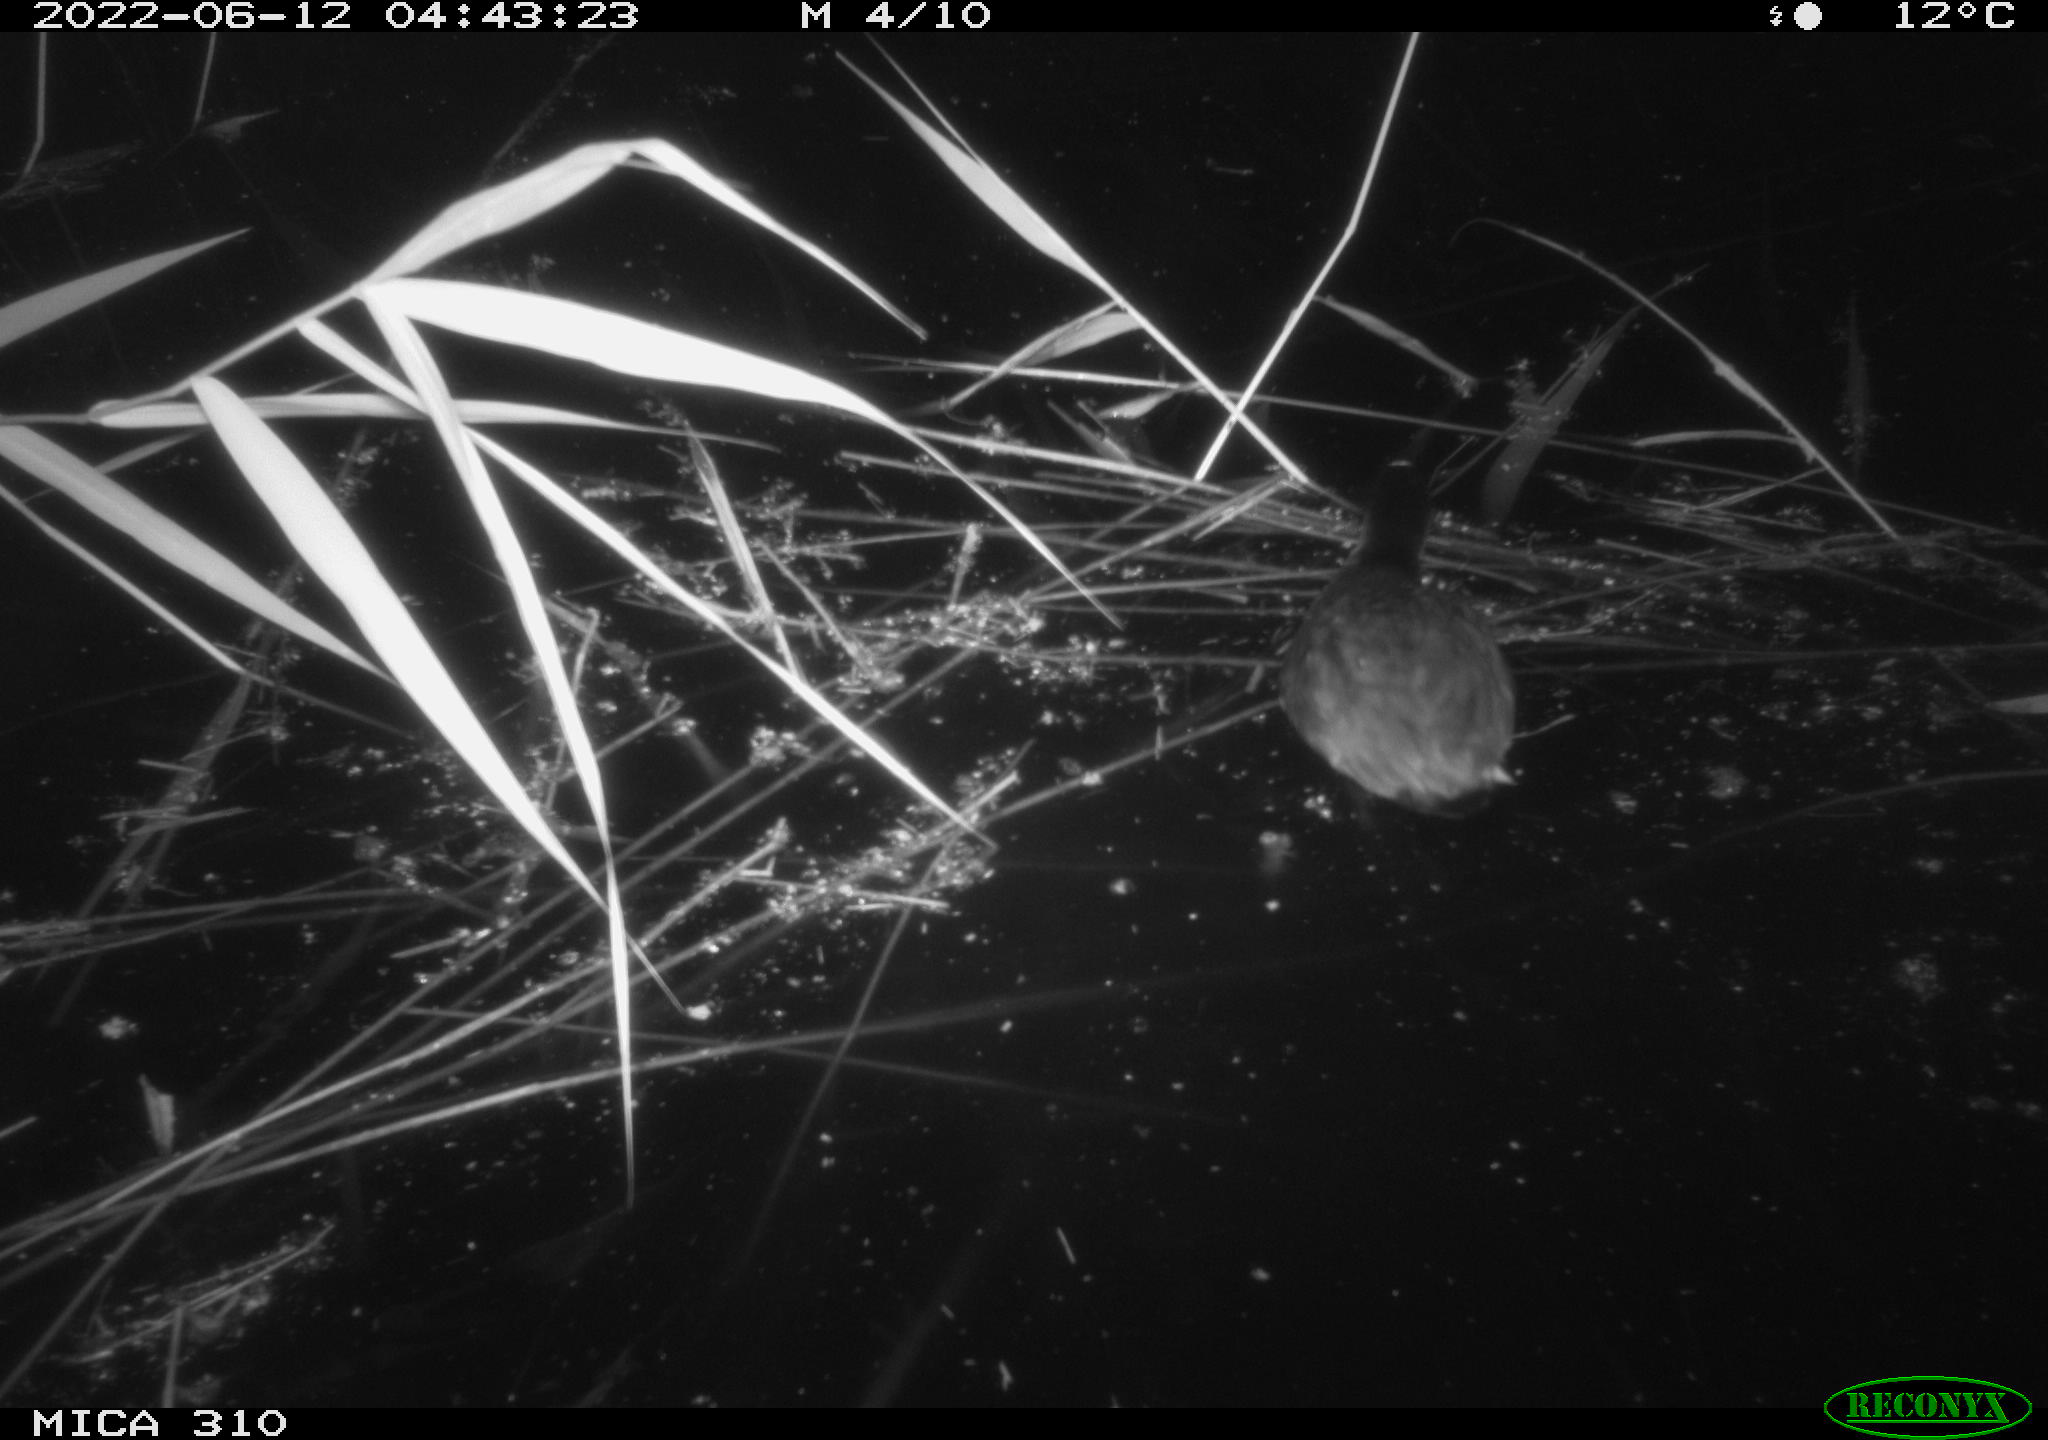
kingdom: Animalia
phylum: Chordata
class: Aves
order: Gruiformes
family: Rallidae
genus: Fulica
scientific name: Fulica atra
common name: Eurasian coot
